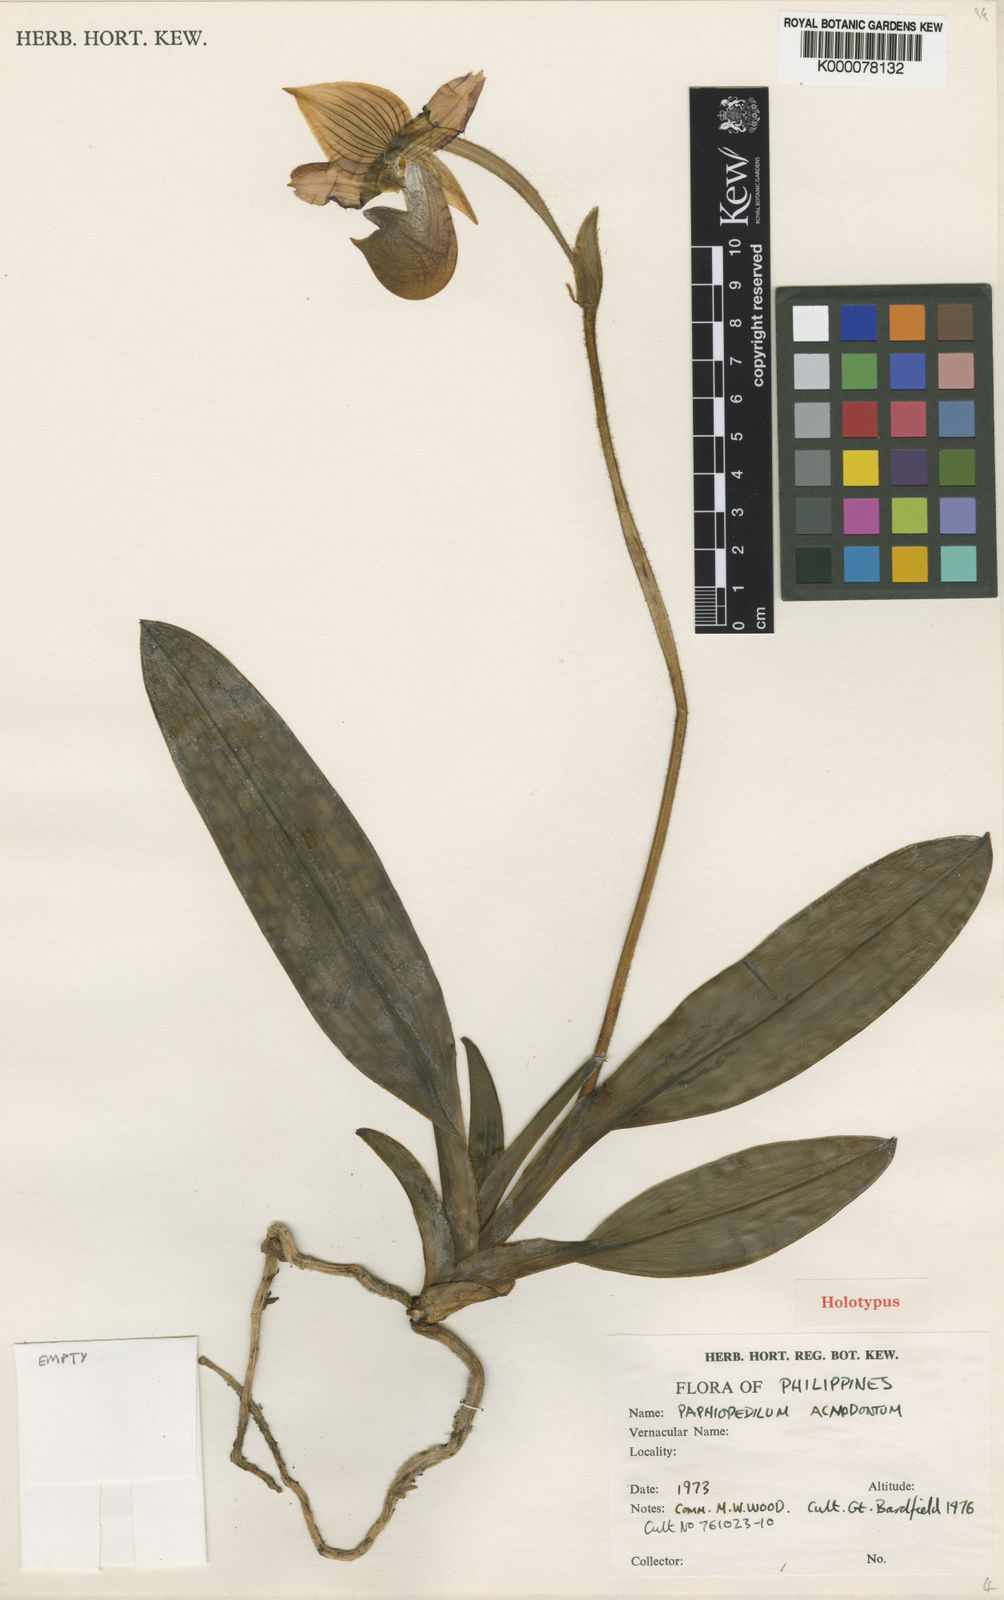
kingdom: Plantae
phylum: Tracheophyta
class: Liliopsida
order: Asparagales
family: Orchidaceae
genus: Paphiopedilum
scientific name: Paphiopedilum acmodontum
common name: Pointed tooth paphiopedilum
